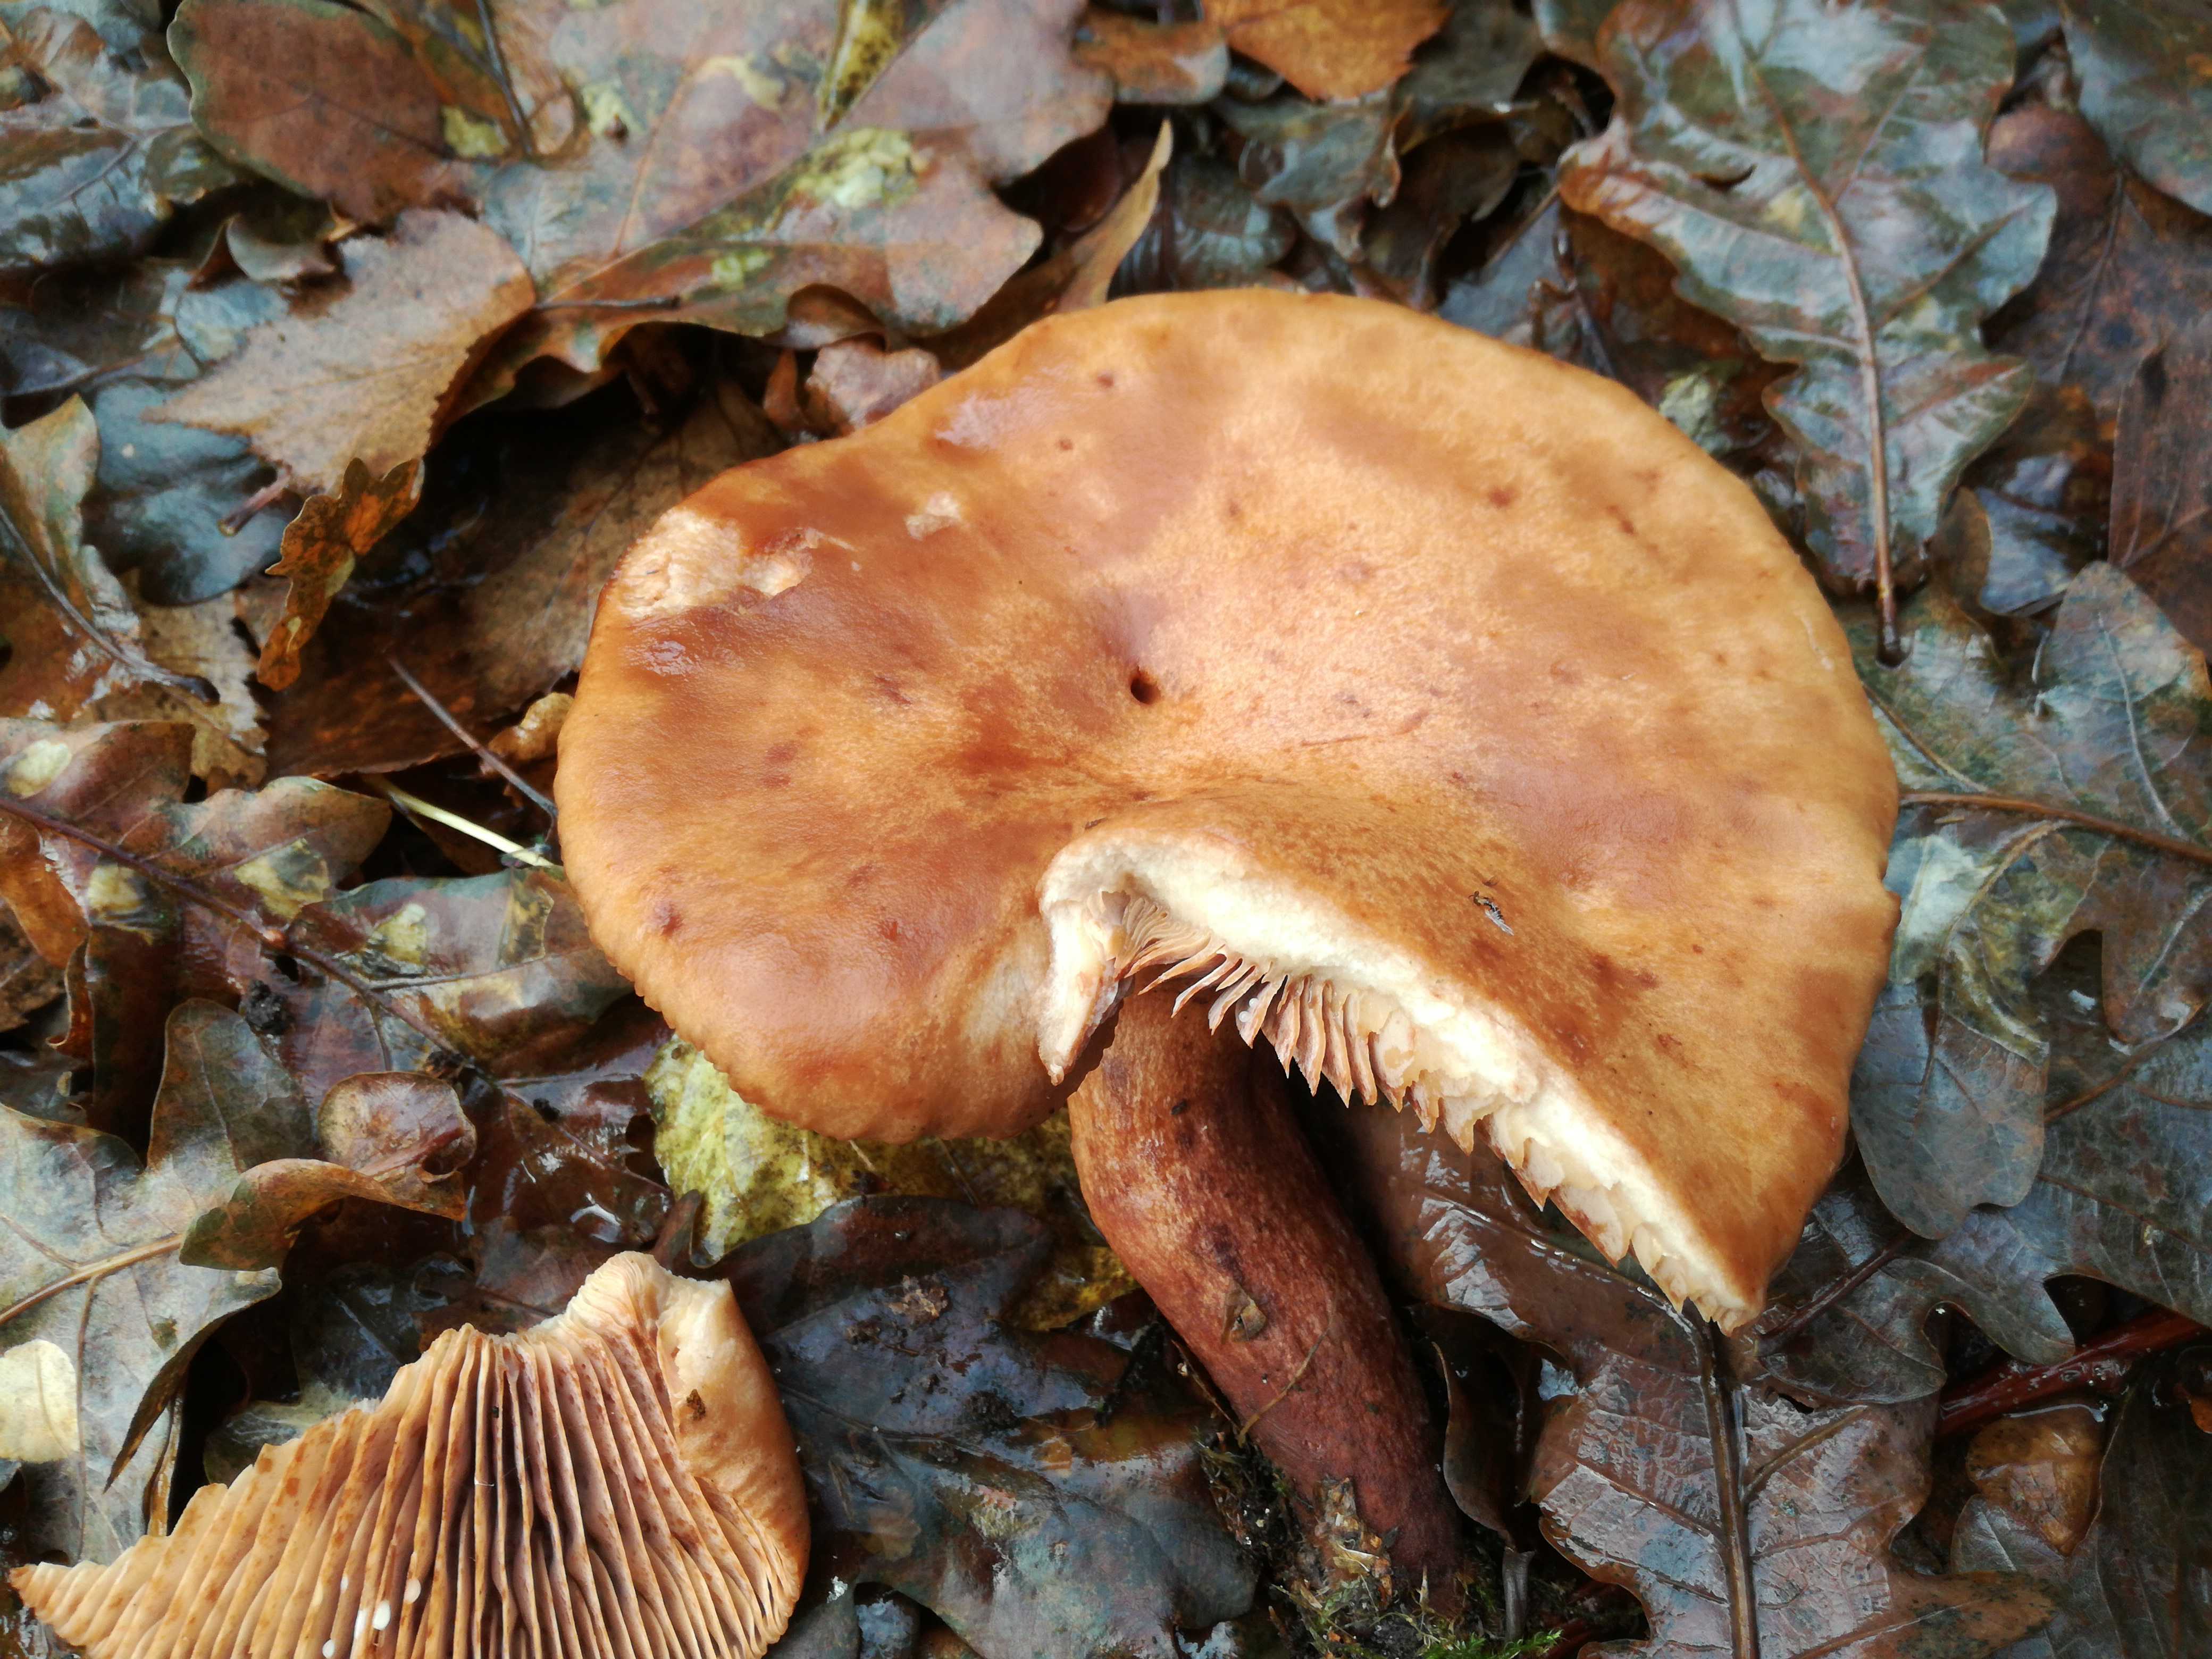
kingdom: Fungi
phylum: Basidiomycota
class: Agaricomycetes
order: Russulales
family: Russulaceae
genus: Lactarius
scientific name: Lactarius quietus
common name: ege-mælkehat
